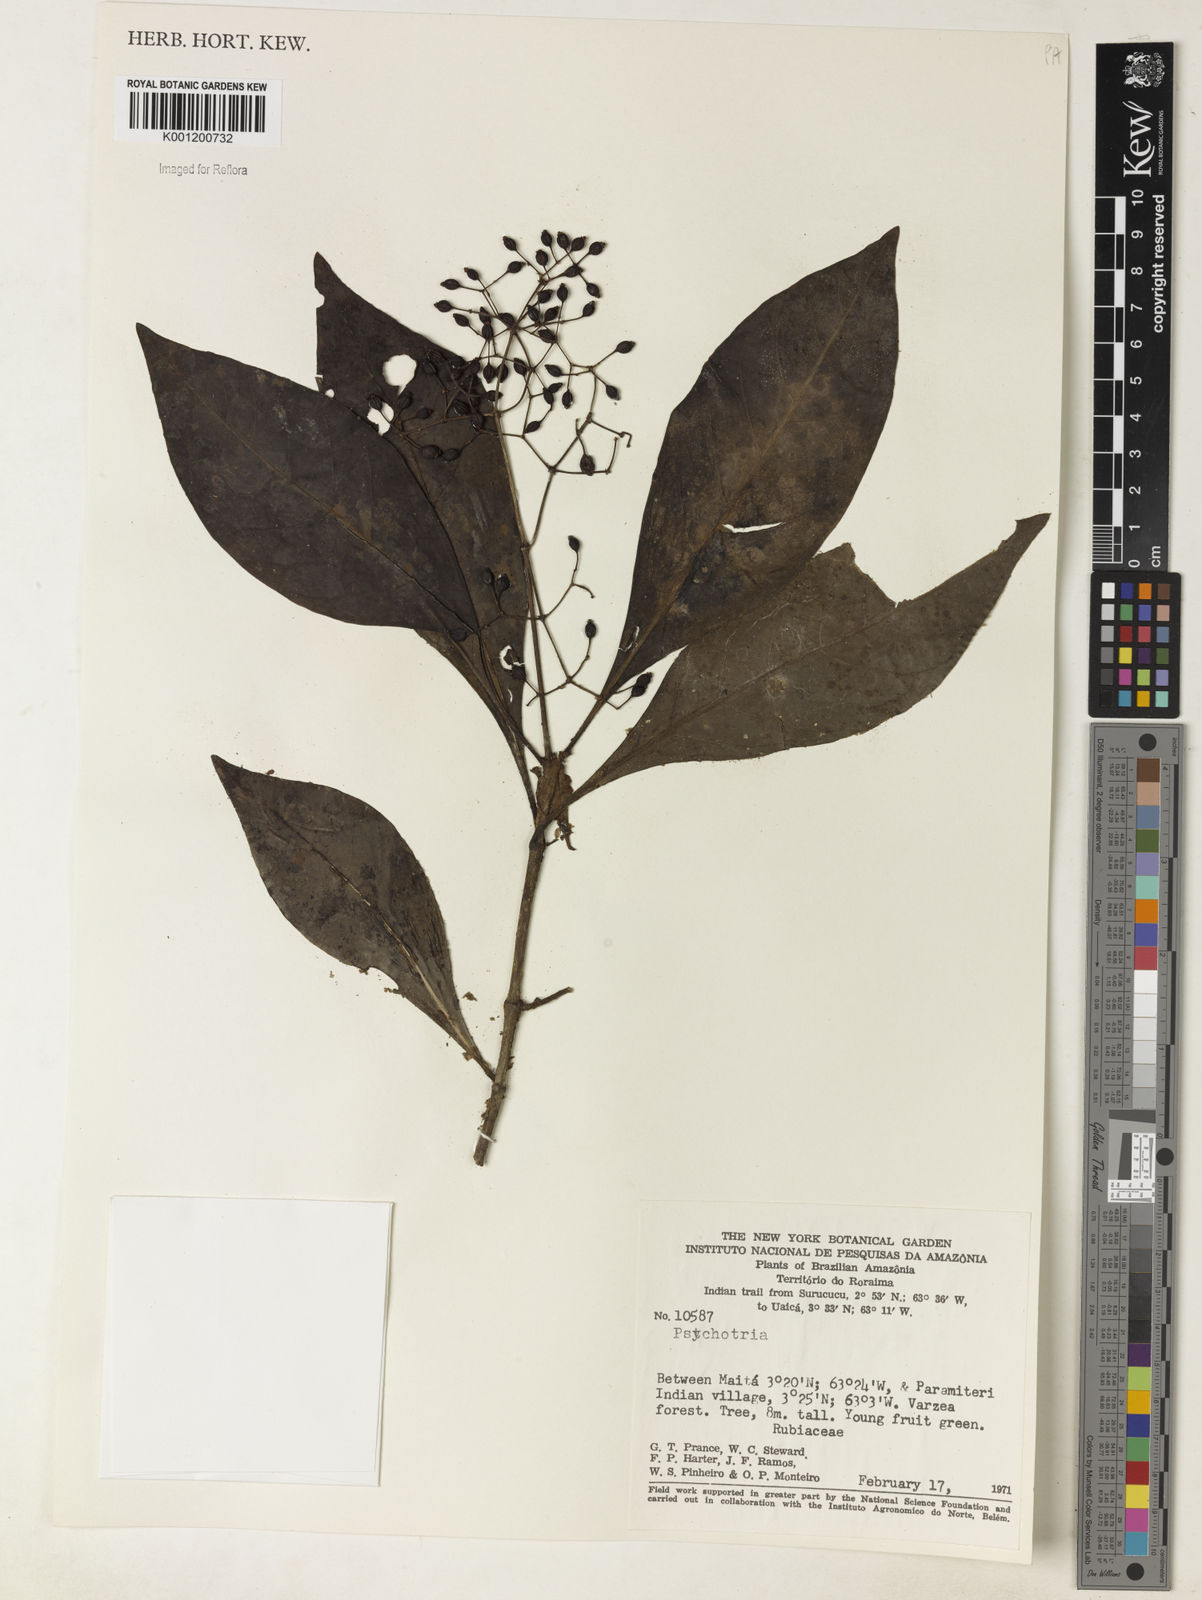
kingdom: Plantae
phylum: Tracheophyta
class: Magnoliopsida
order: Gentianales
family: Rubiaceae
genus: Psychotria
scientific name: Psychotria
